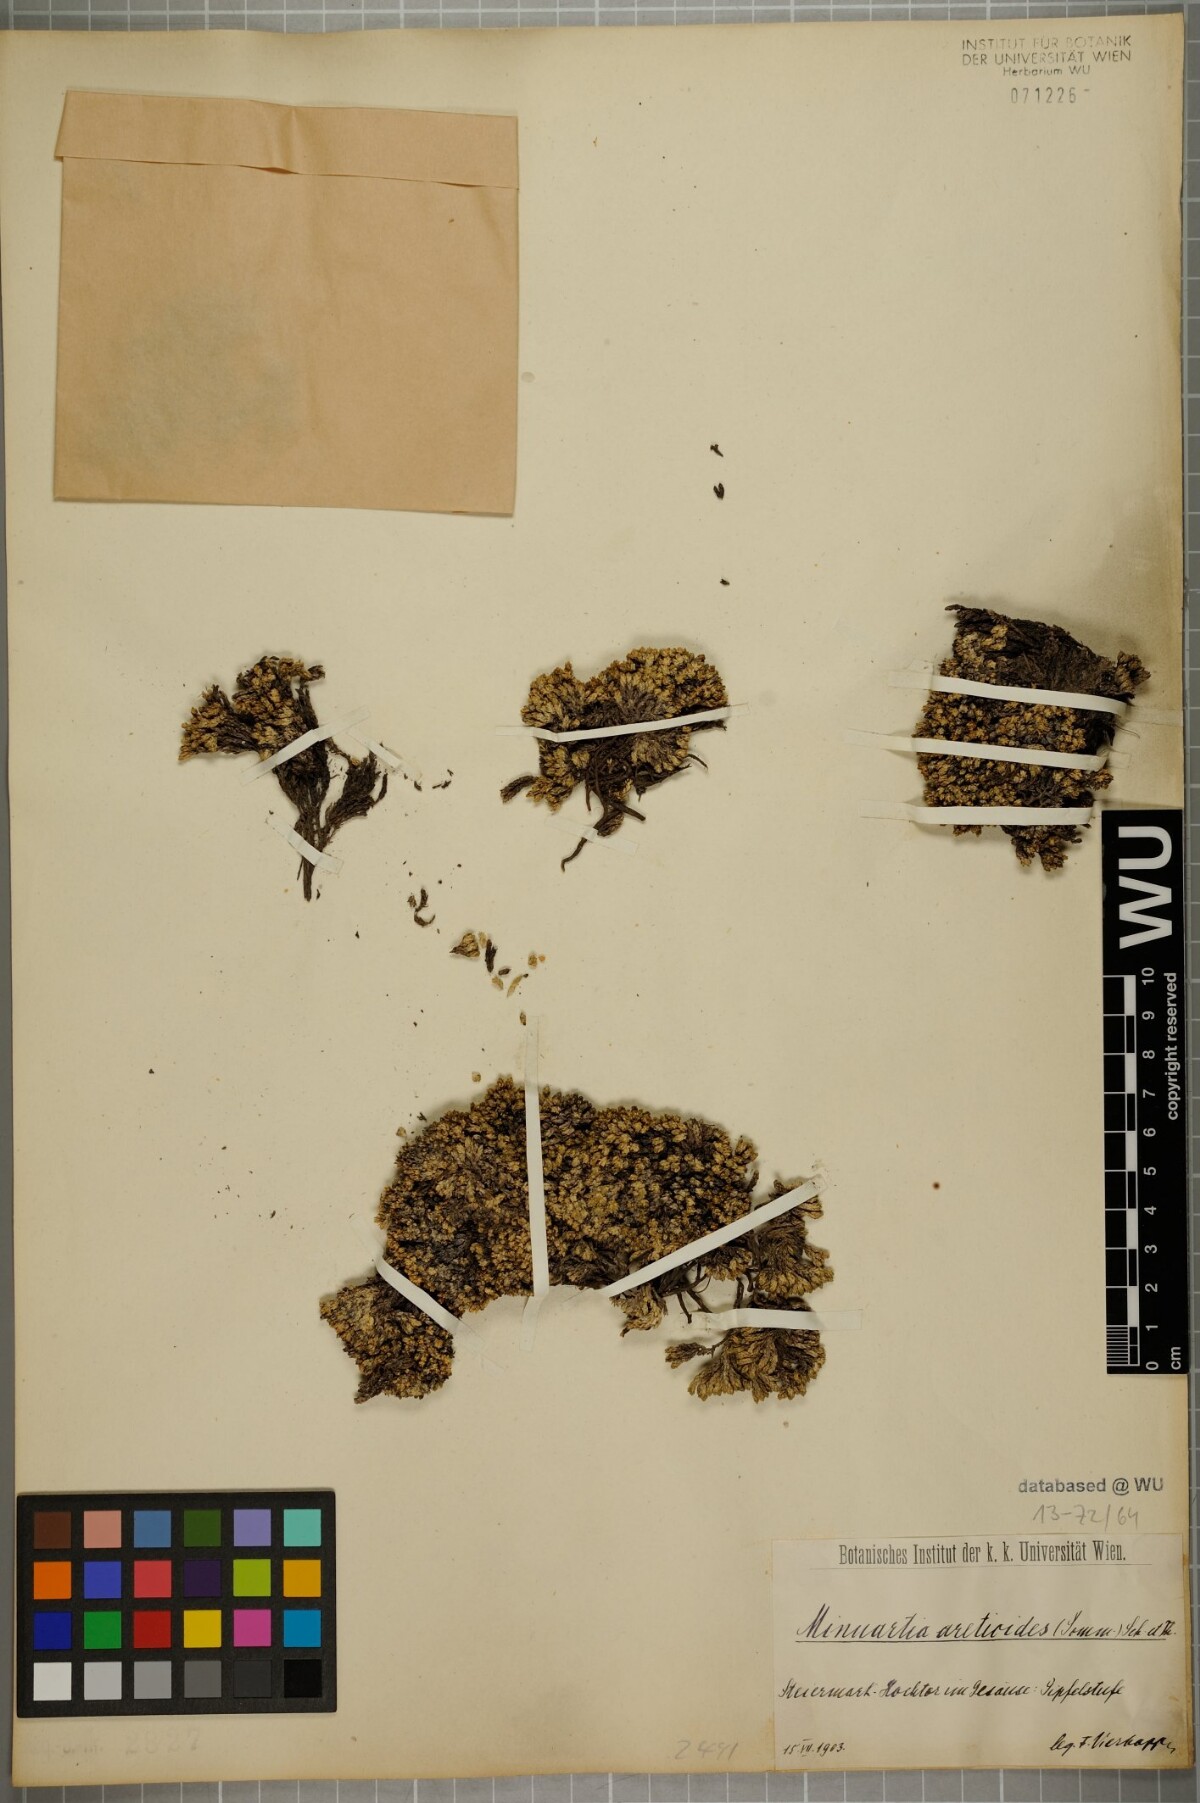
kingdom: Plantae
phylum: Tracheophyta
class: Magnoliopsida
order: Caryophyllales
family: Caryophyllaceae
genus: Facchinia
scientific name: Facchinia cherlerioides
